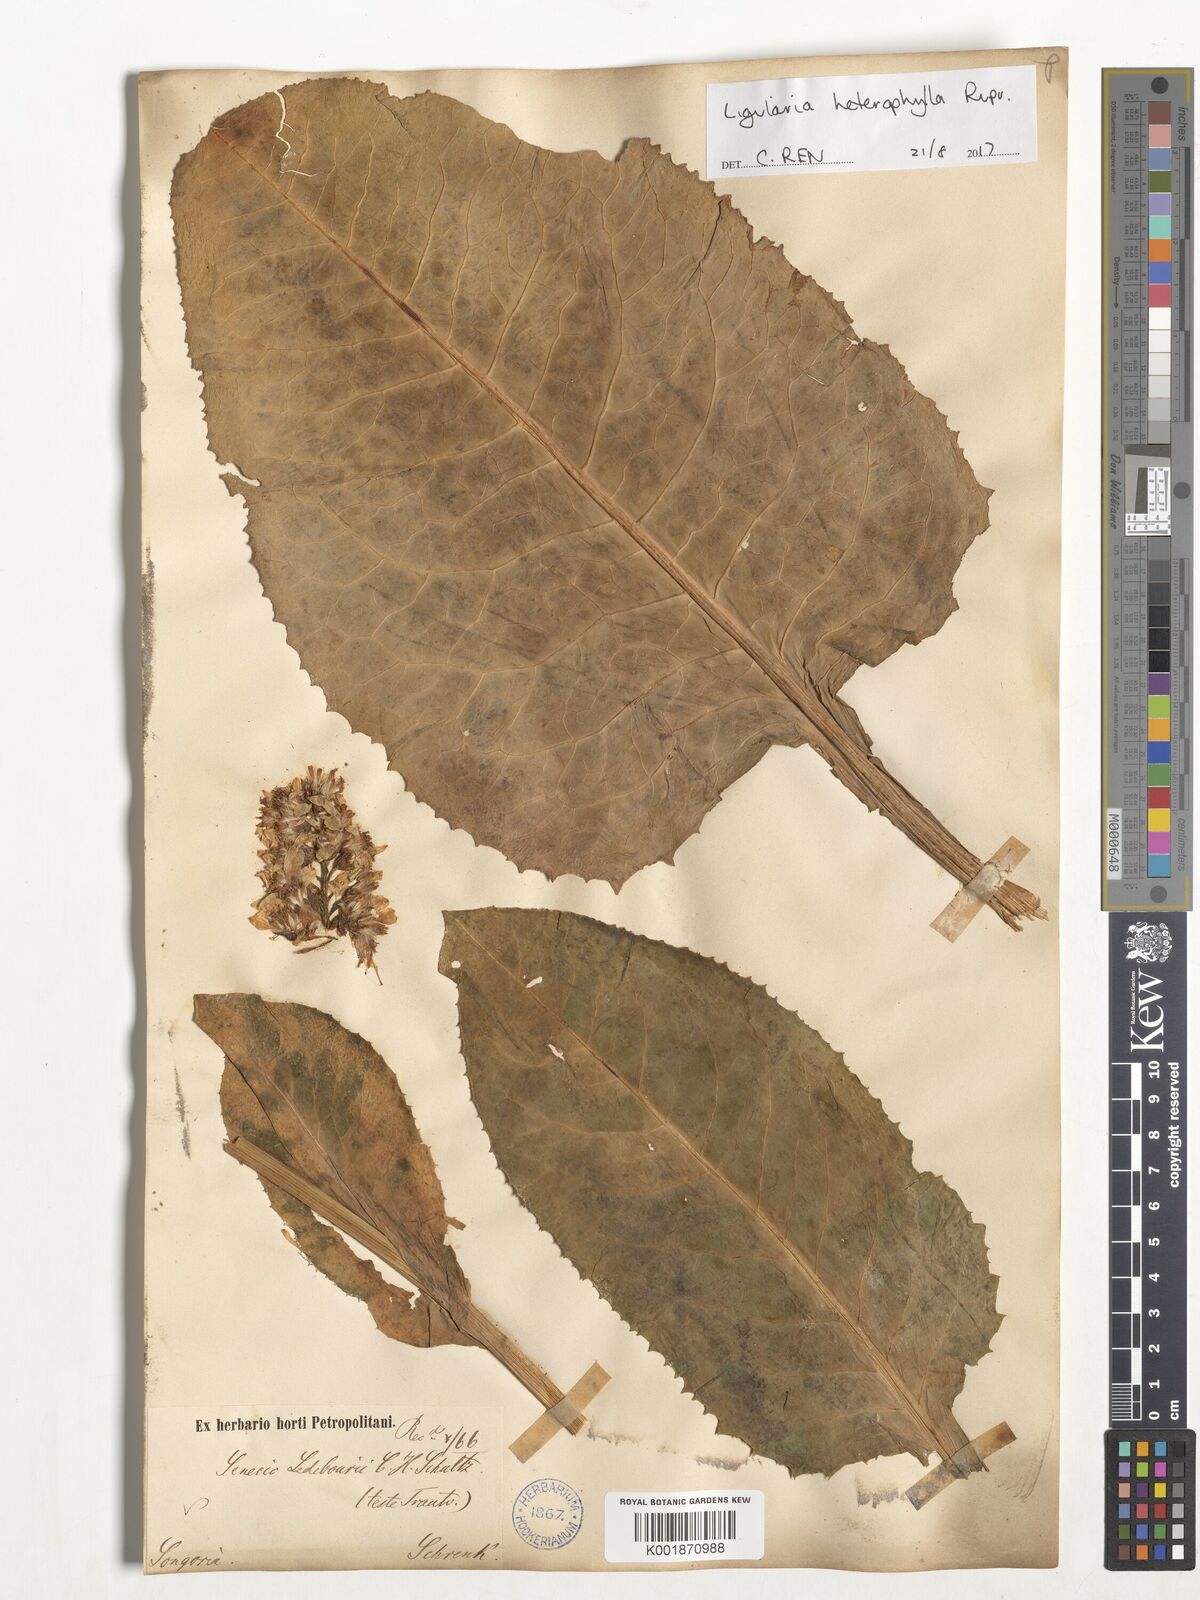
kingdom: Plantae
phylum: Tracheophyta
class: Magnoliopsida
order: Asterales
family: Asteraceae
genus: Ligularia
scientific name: Ligularia heterophylla
